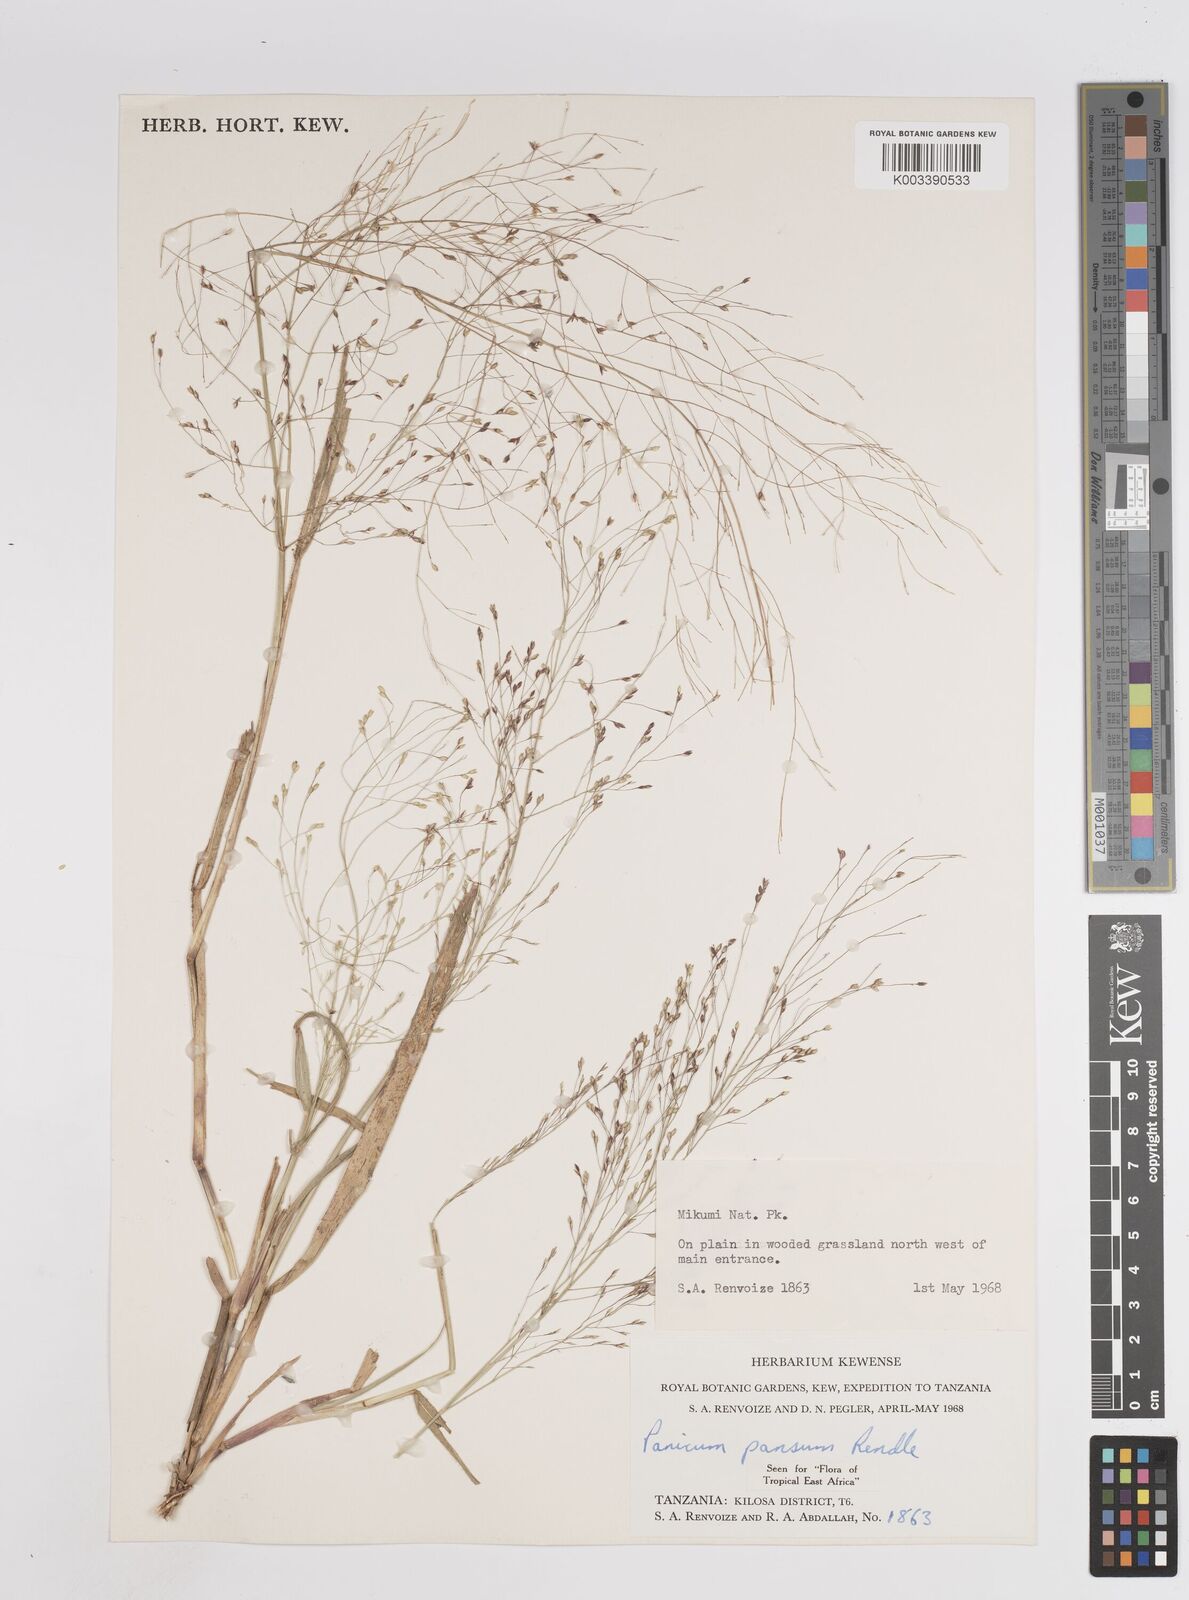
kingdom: Plantae
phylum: Tracheophyta
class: Liliopsida
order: Poales
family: Poaceae
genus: Panicum
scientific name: Panicum pansum
